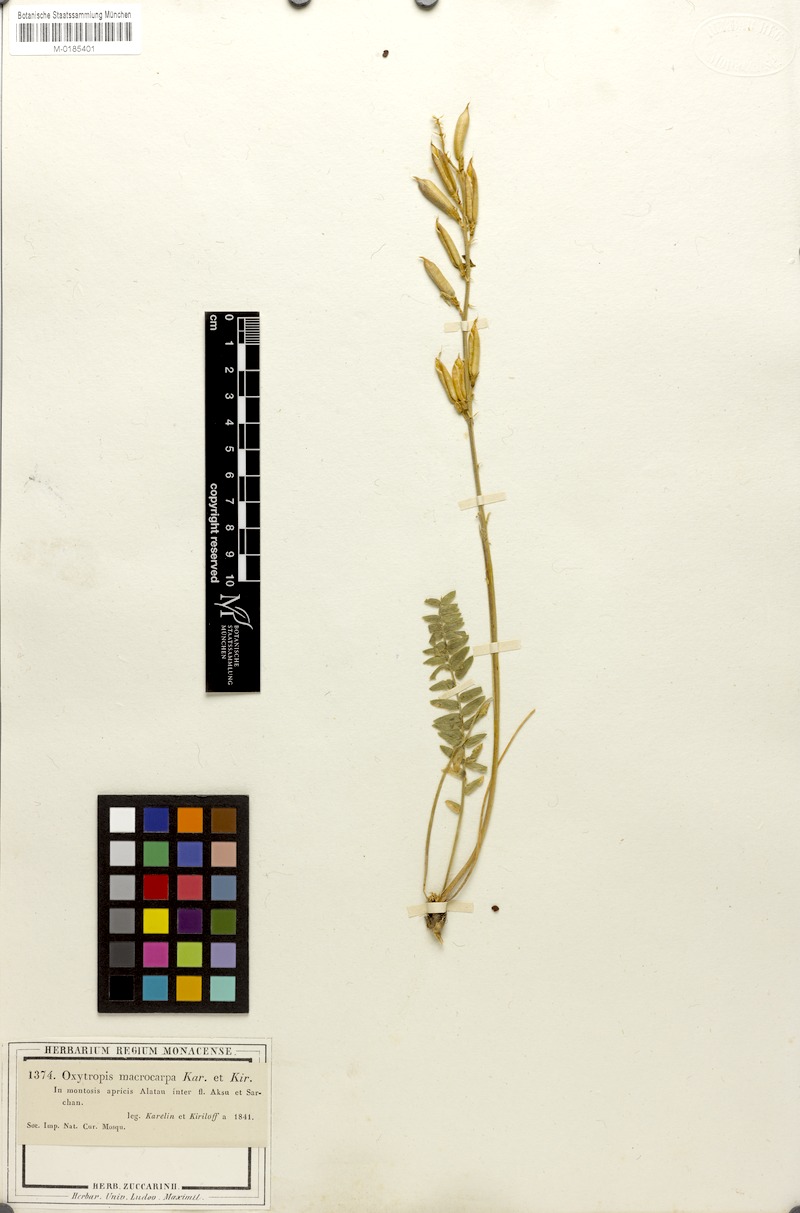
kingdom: Plantae
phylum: Tracheophyta
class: Magnoliopsida
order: Fabales
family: Fabaceae
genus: Oxytropis
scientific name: Oxytropis macrocarpa
